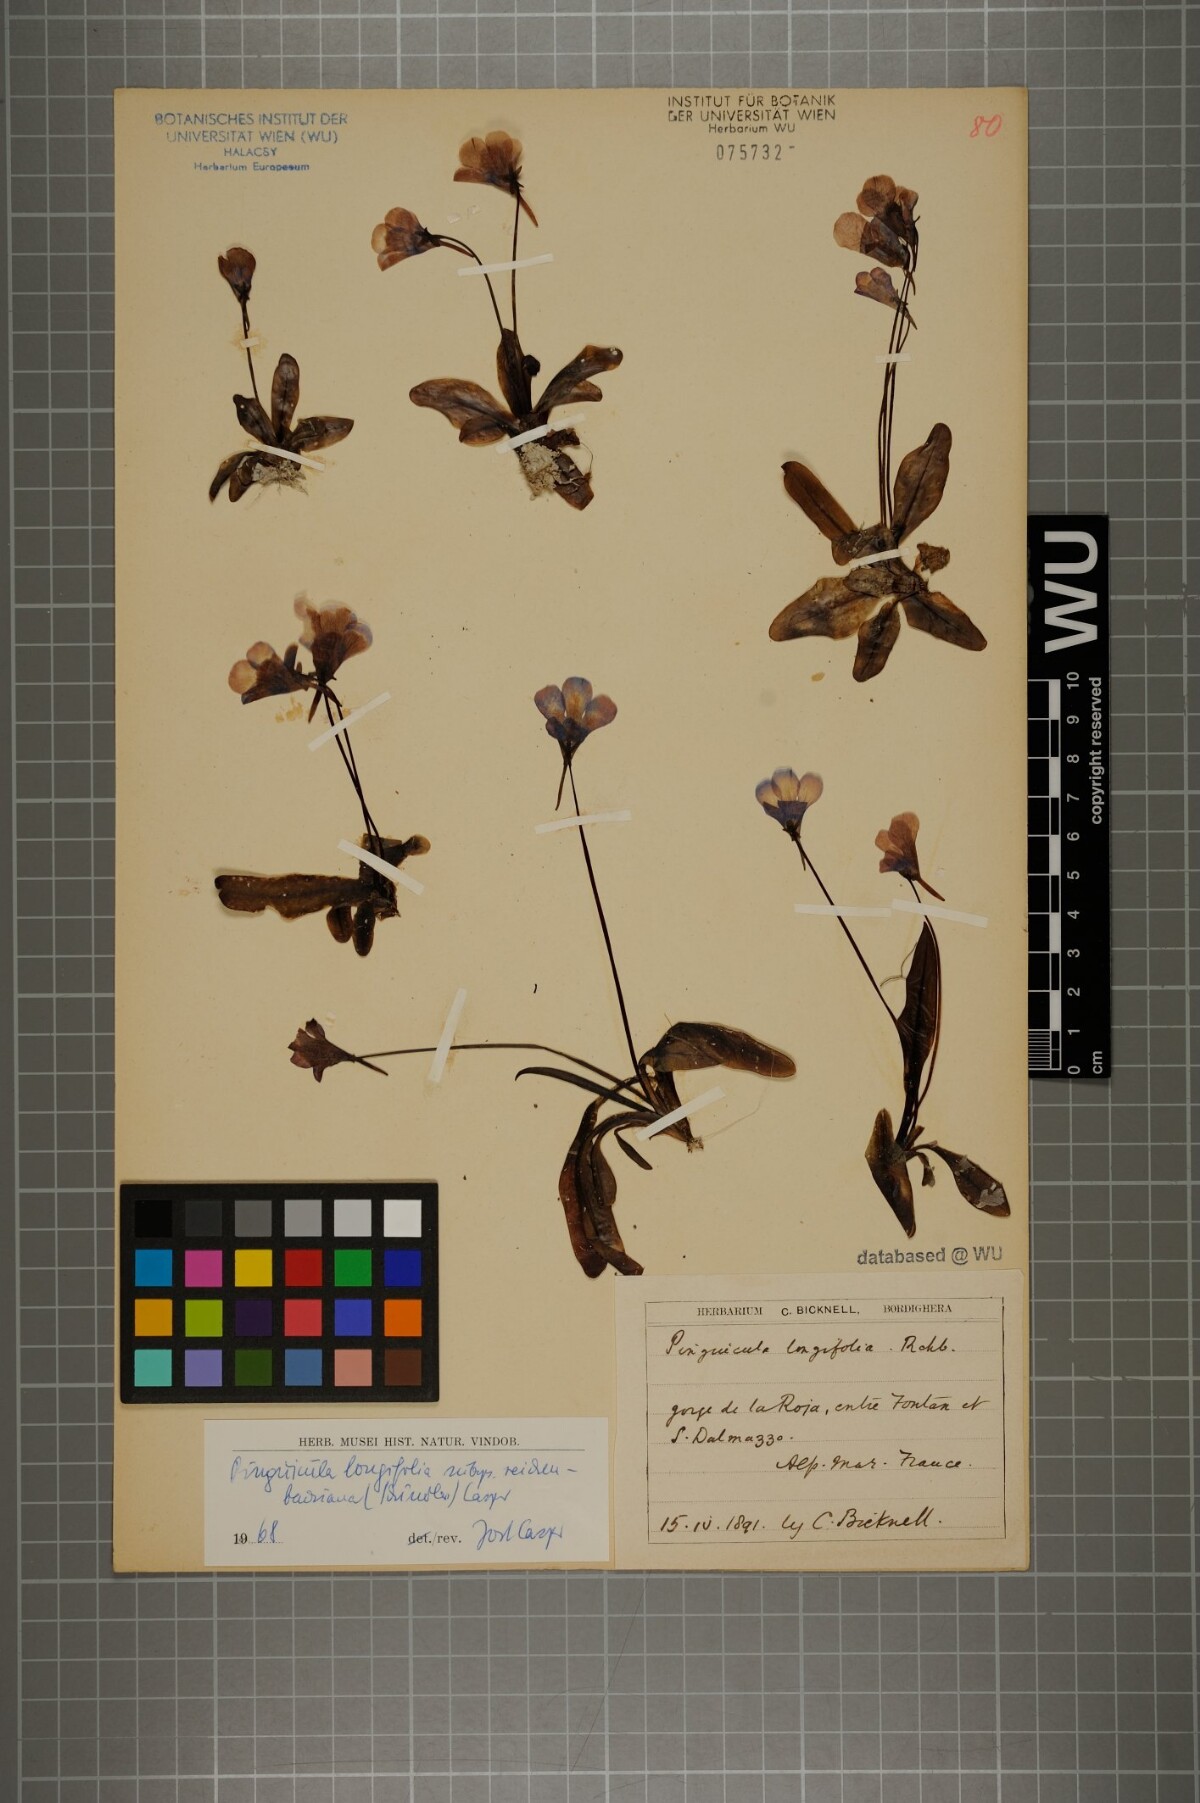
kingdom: Plantae
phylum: Tracheophyta
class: Magnoliopsida
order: Lamiales
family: Lentibulariaceae
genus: Pinguicula
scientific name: Pinguicula longifolia
